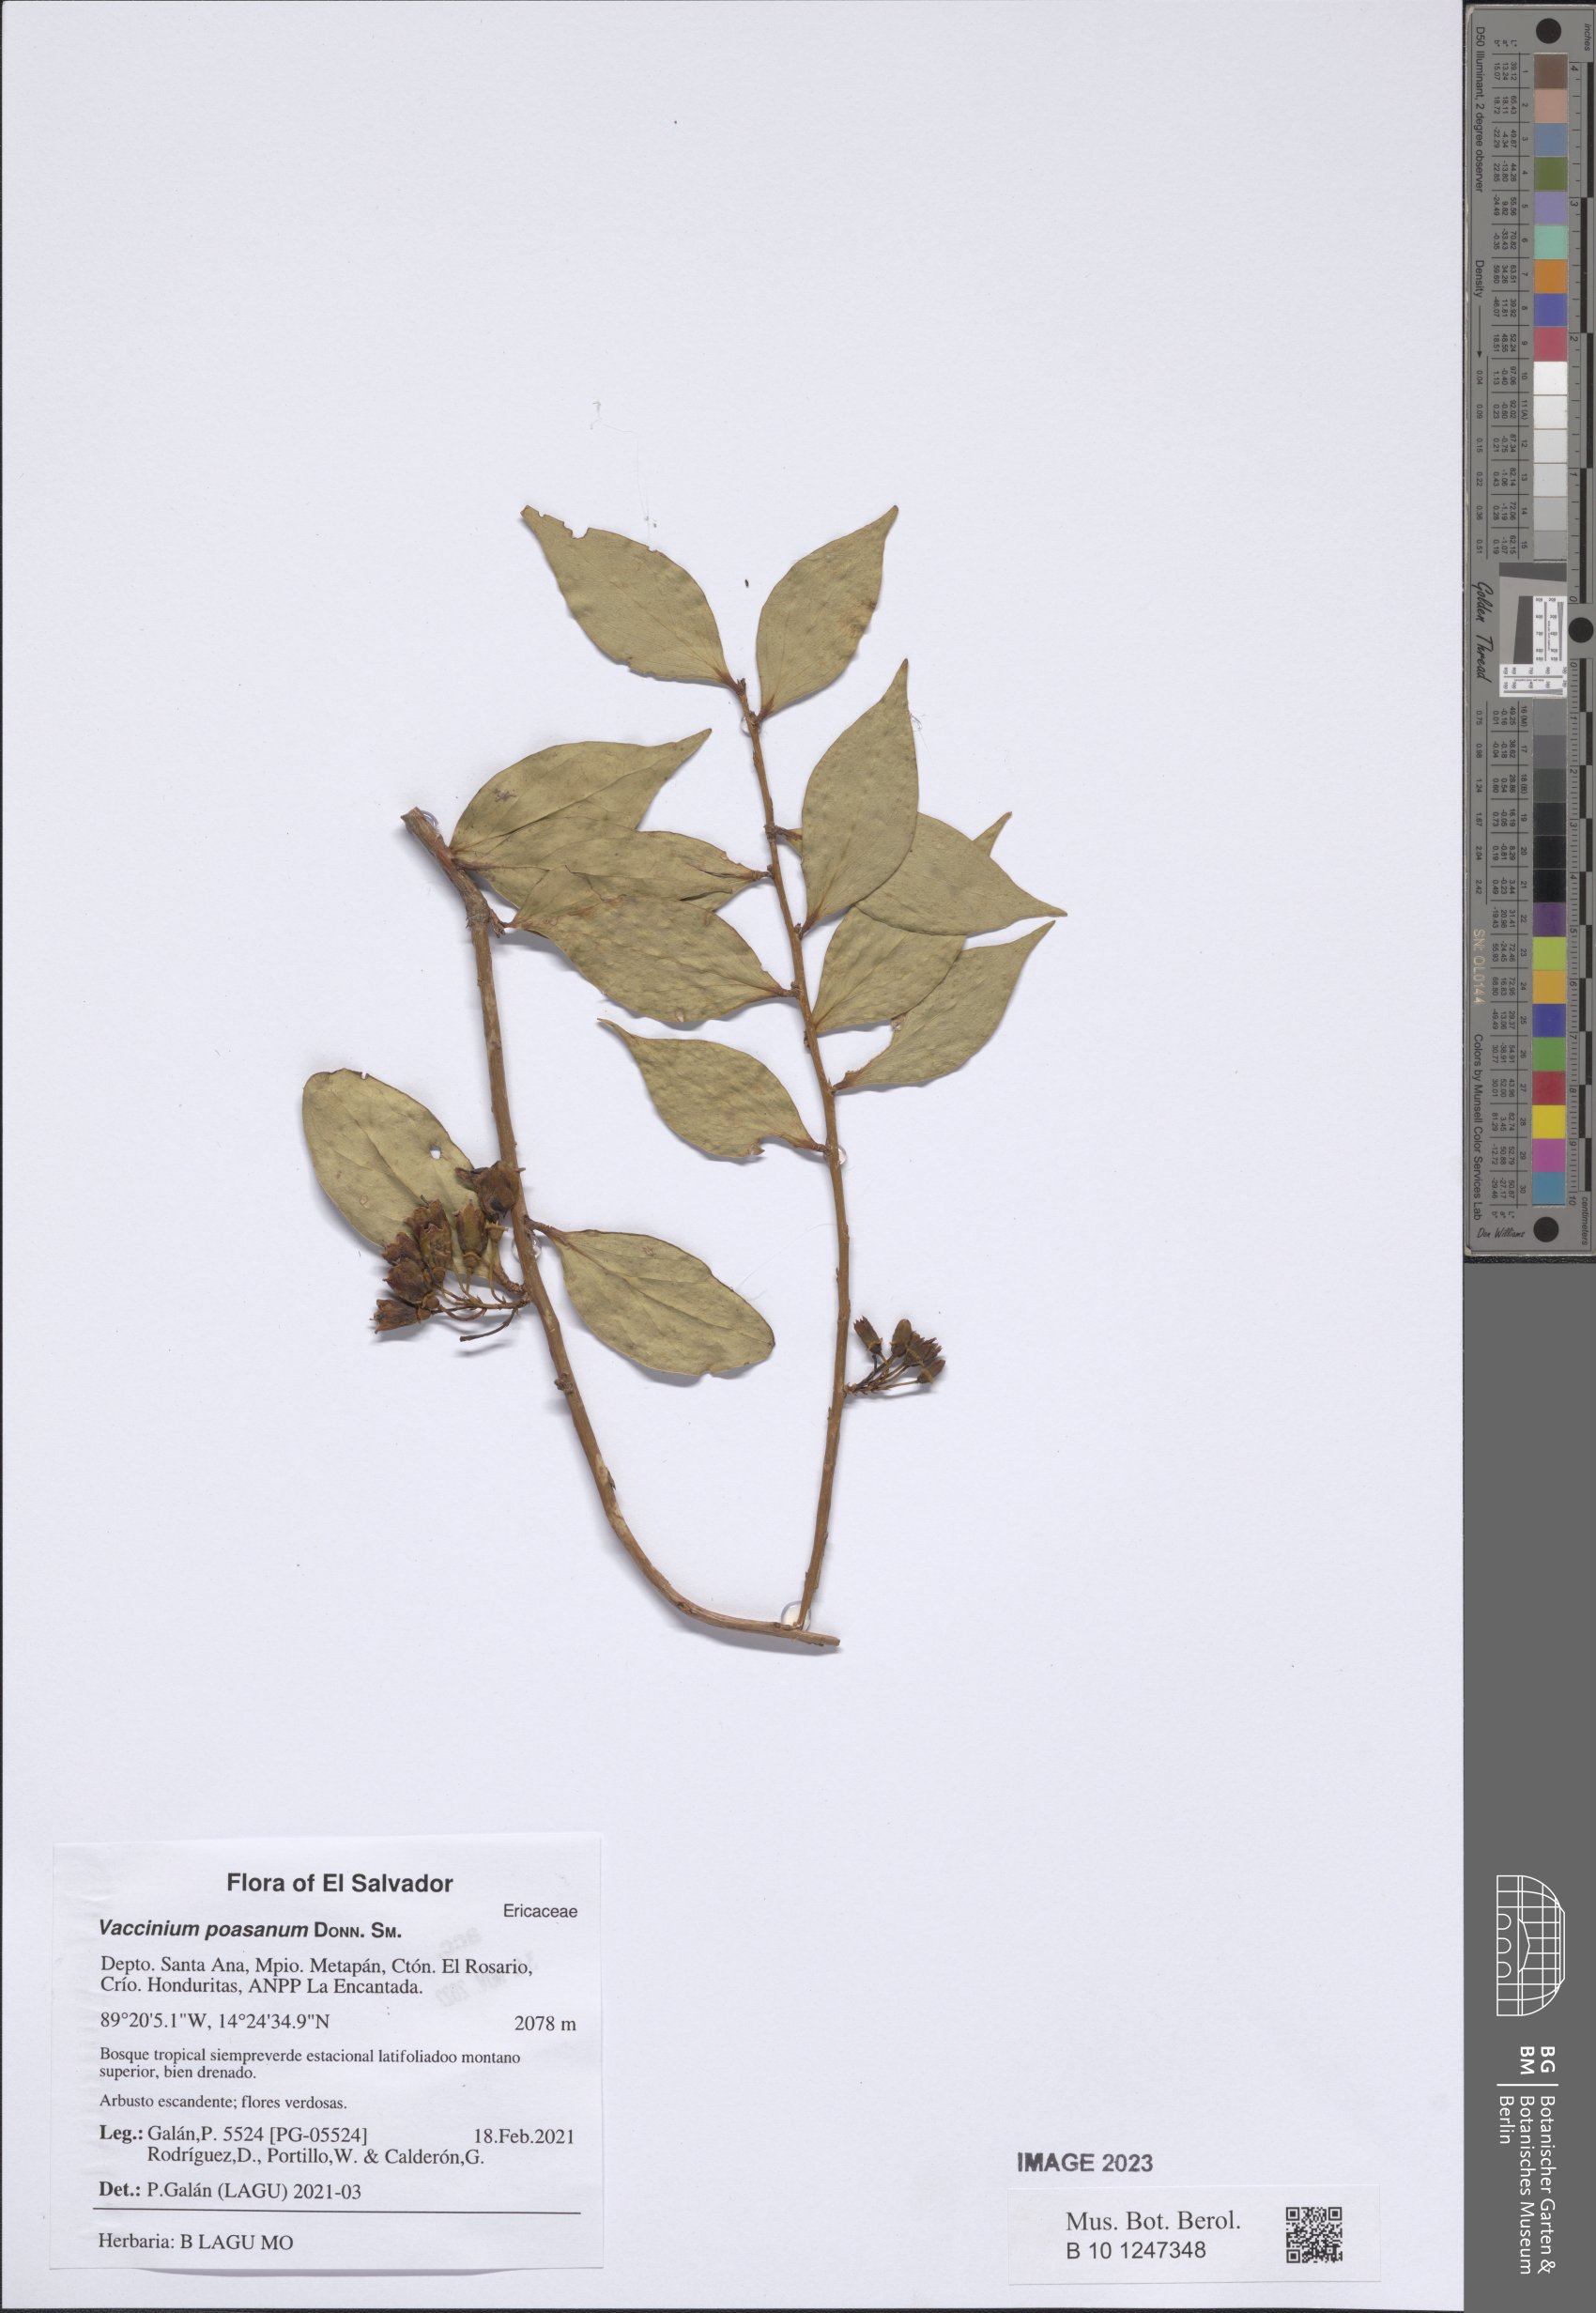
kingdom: Plantae
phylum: Tracheophyta
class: Magnoliopsida
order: Ericales
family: Ericaceae
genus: Symphysia
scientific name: Symphysia poasana
